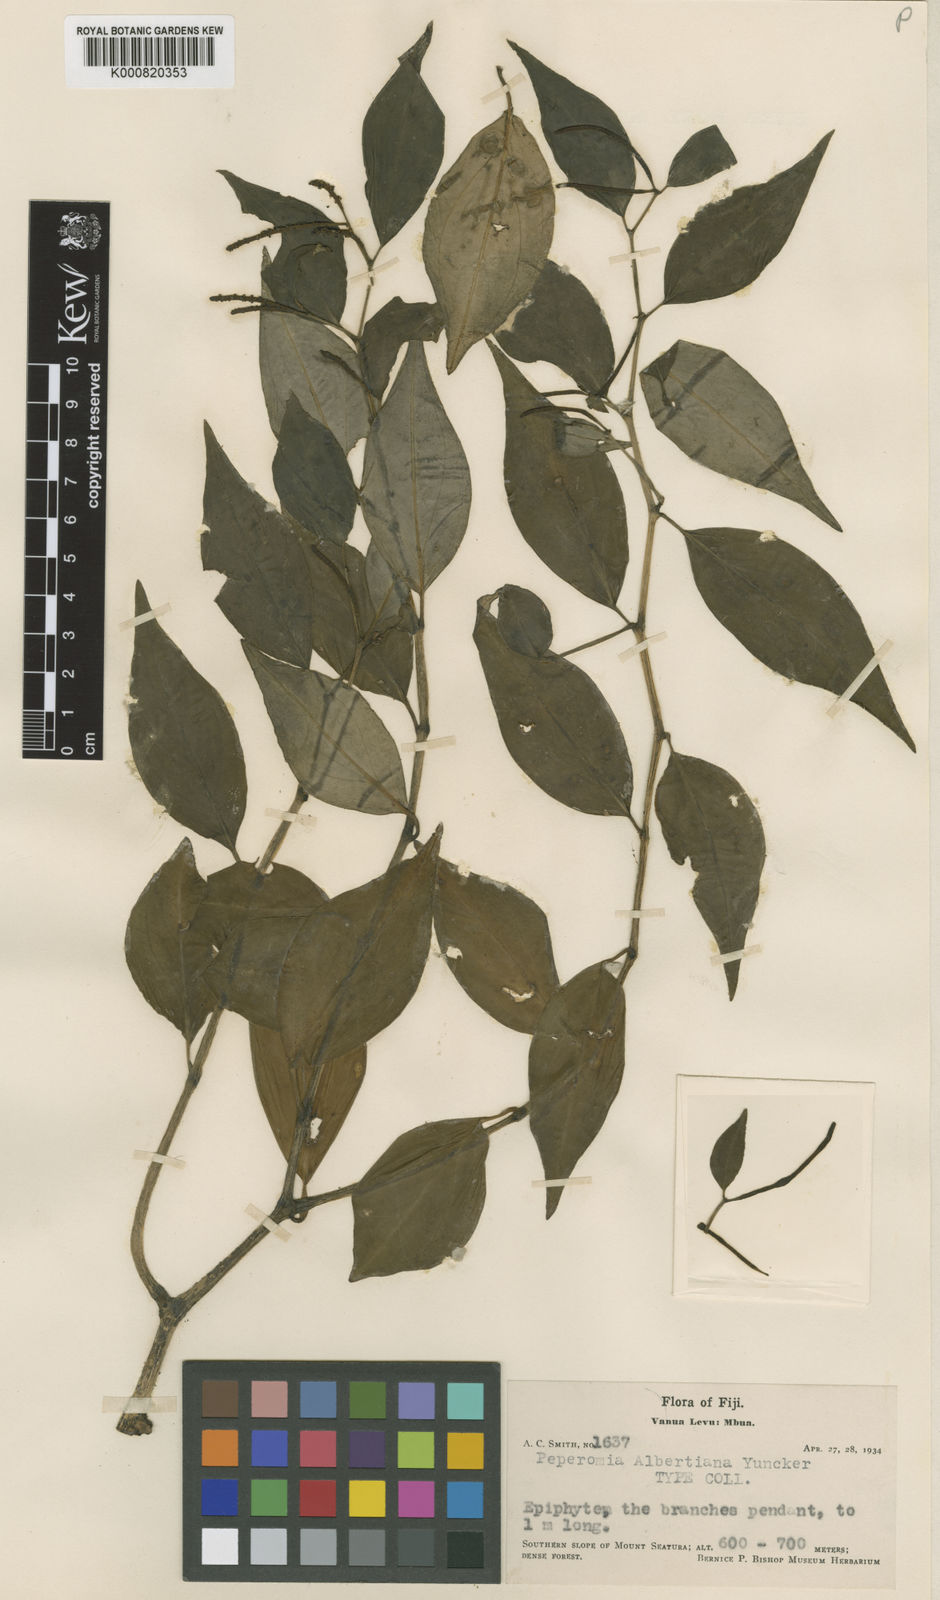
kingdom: Plantae
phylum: Tracheophyta
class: Magnoliopsida
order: Piperales
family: Piperaceae
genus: Peperomia
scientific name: Peperomia albertiana
